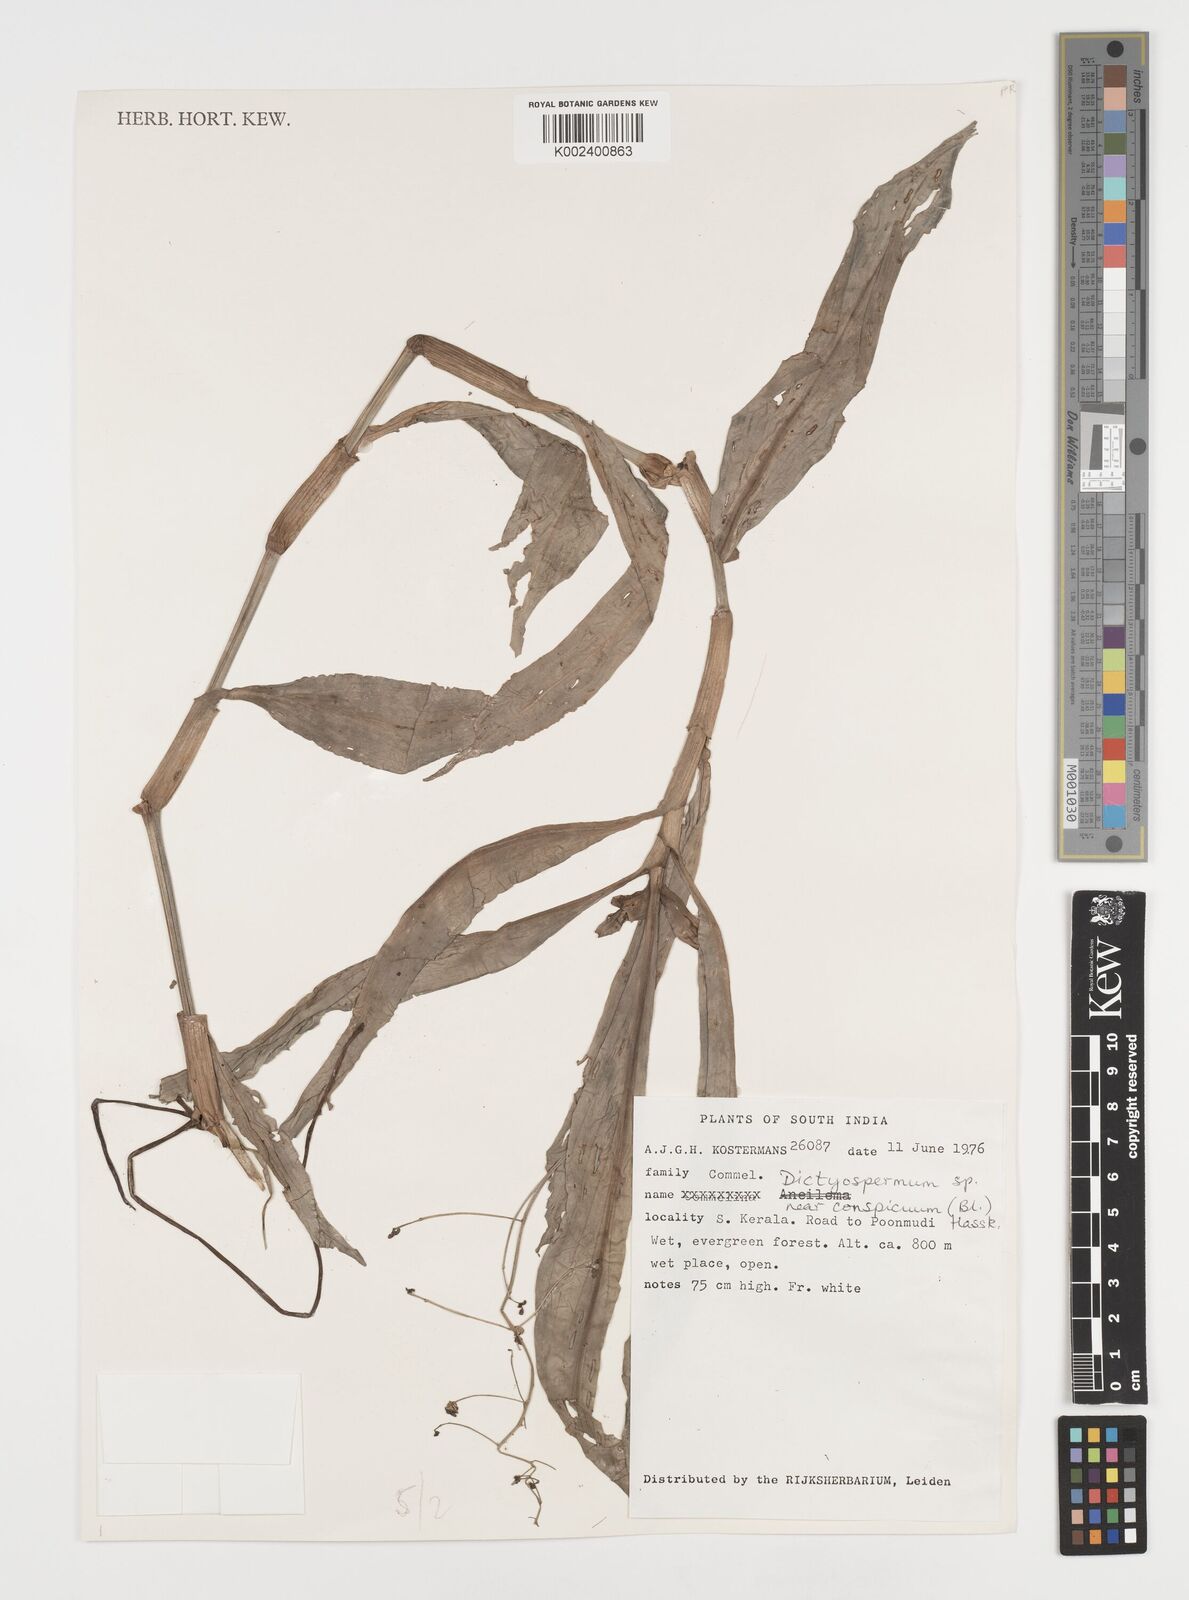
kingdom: Plantae
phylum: Tracheophyta
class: Liliopsida
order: Commelinales
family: Commelinaceae
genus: Dictyospermum
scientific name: Dictyospermum conspicuum
